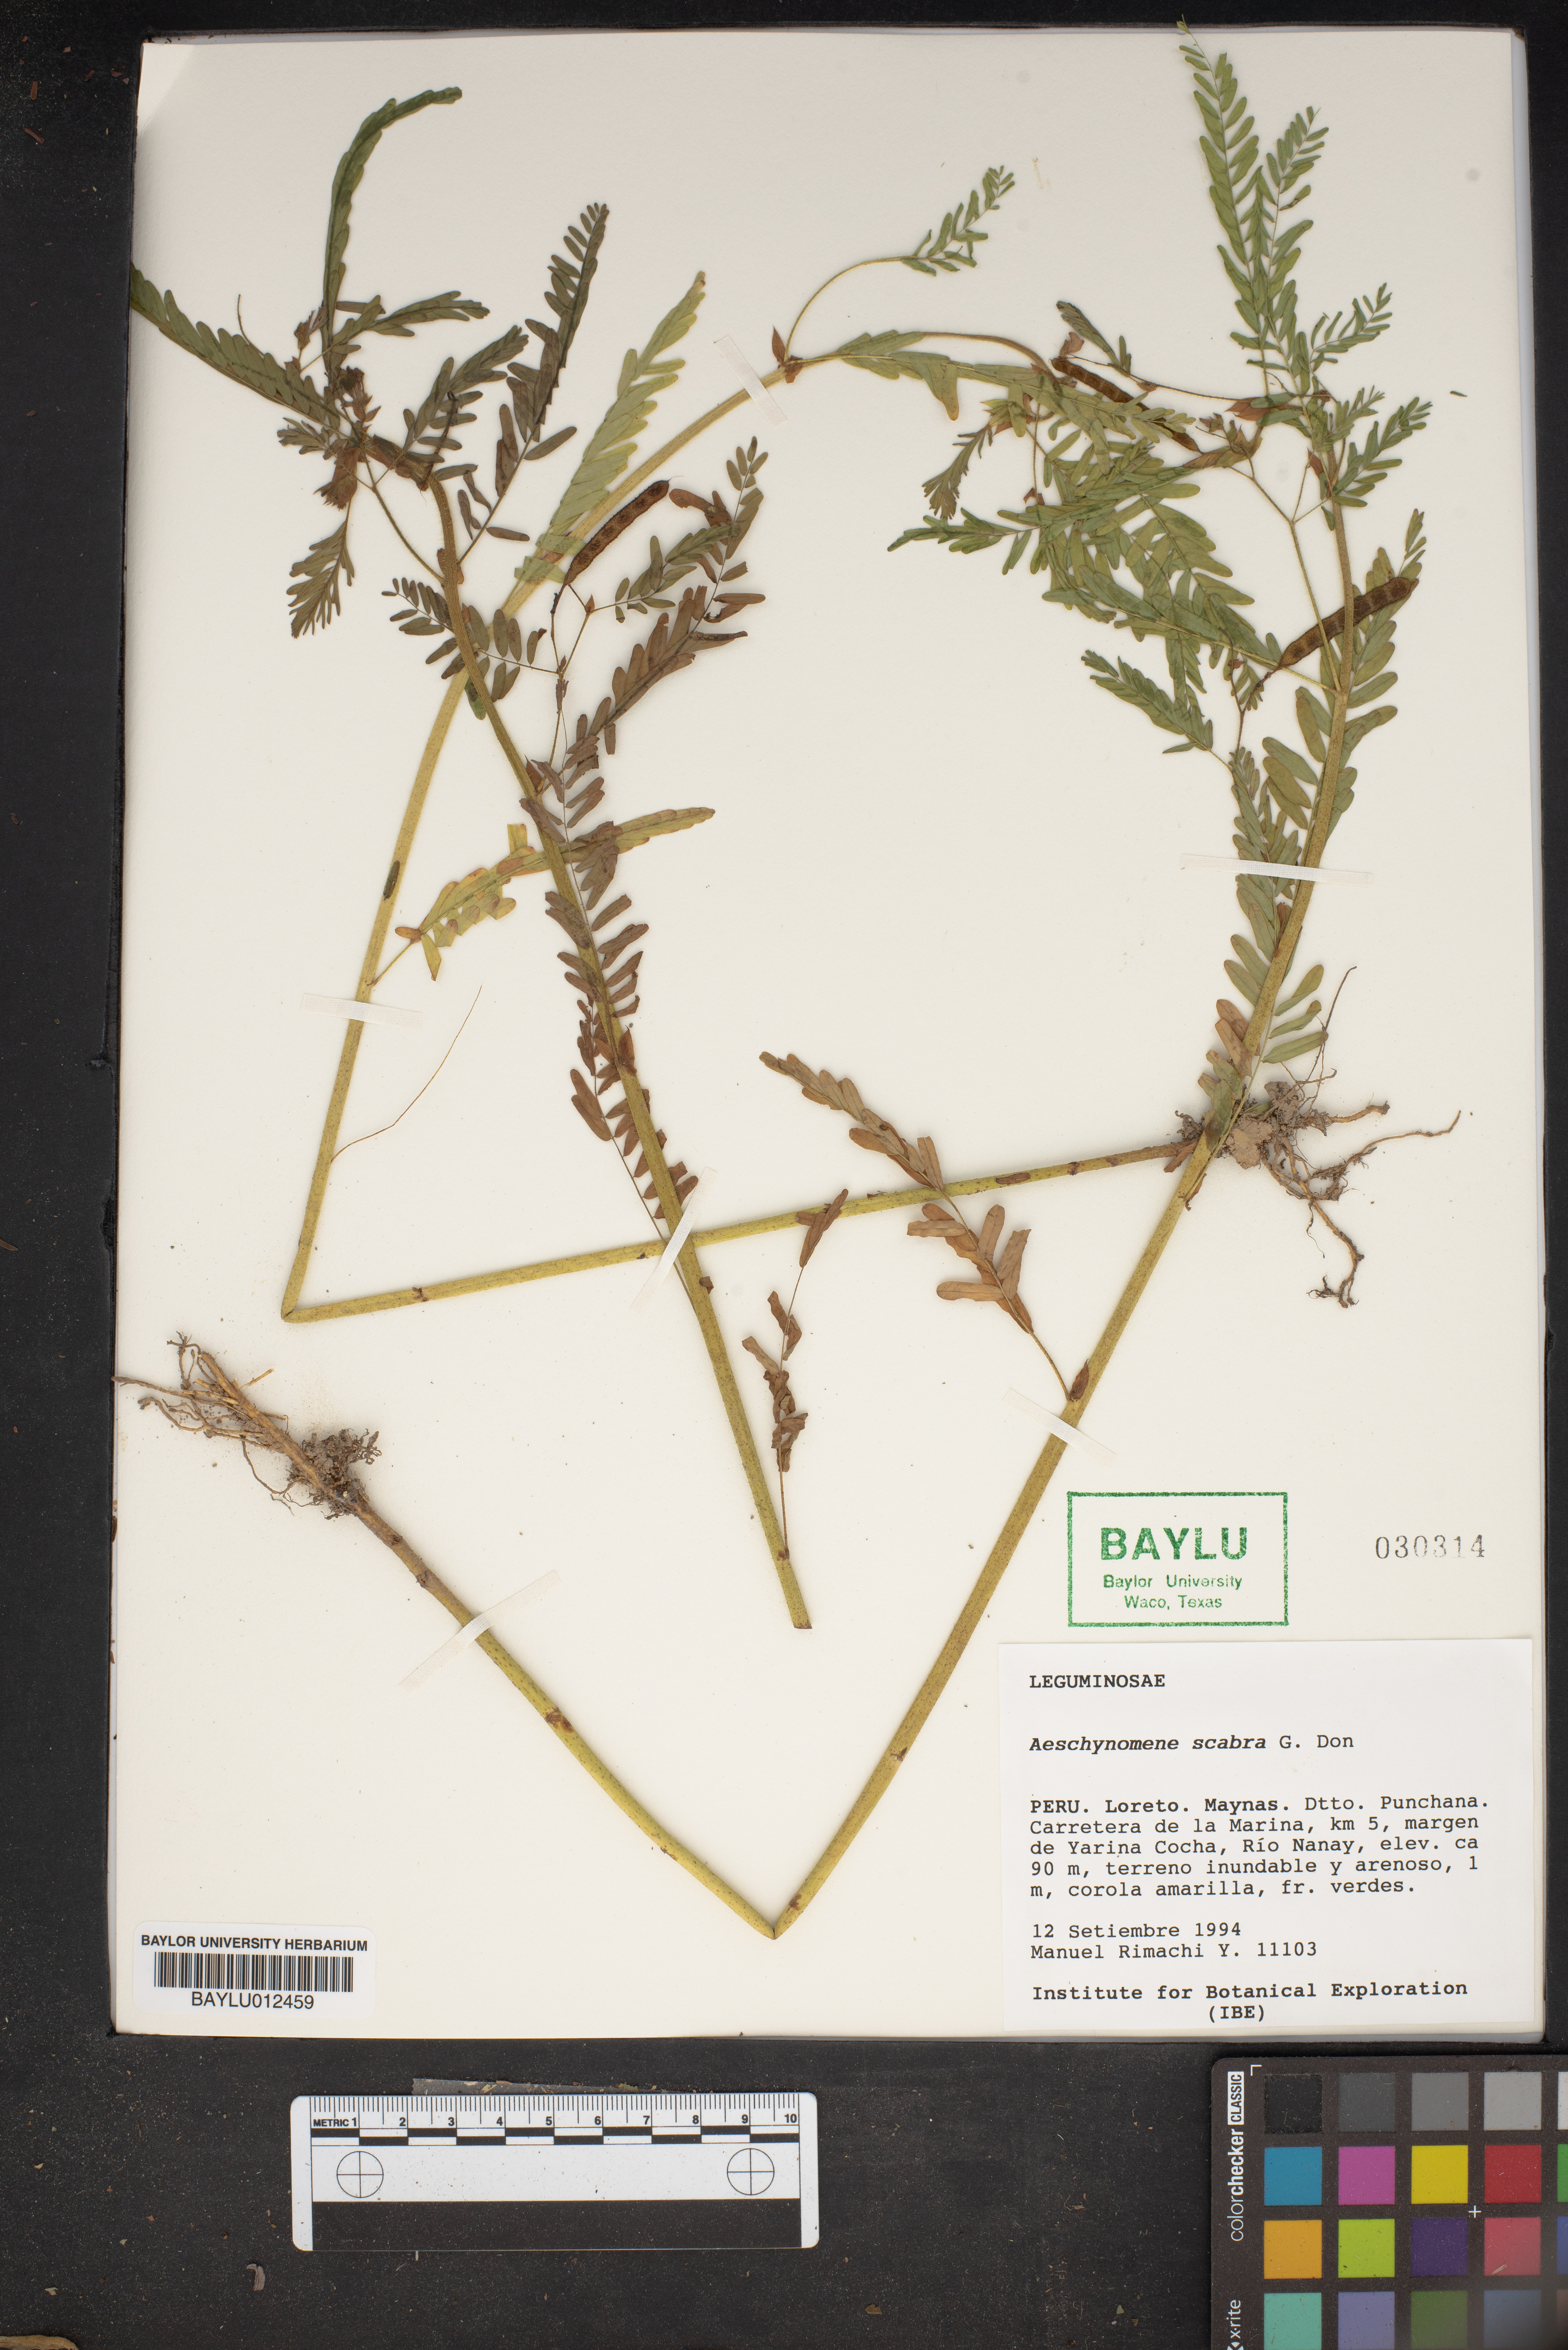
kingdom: Plantae
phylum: Tracheophyta
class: Magnoliopsida
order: Fabales
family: Fabaceae
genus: Aeschynomene
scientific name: Aeschynomene scabra
